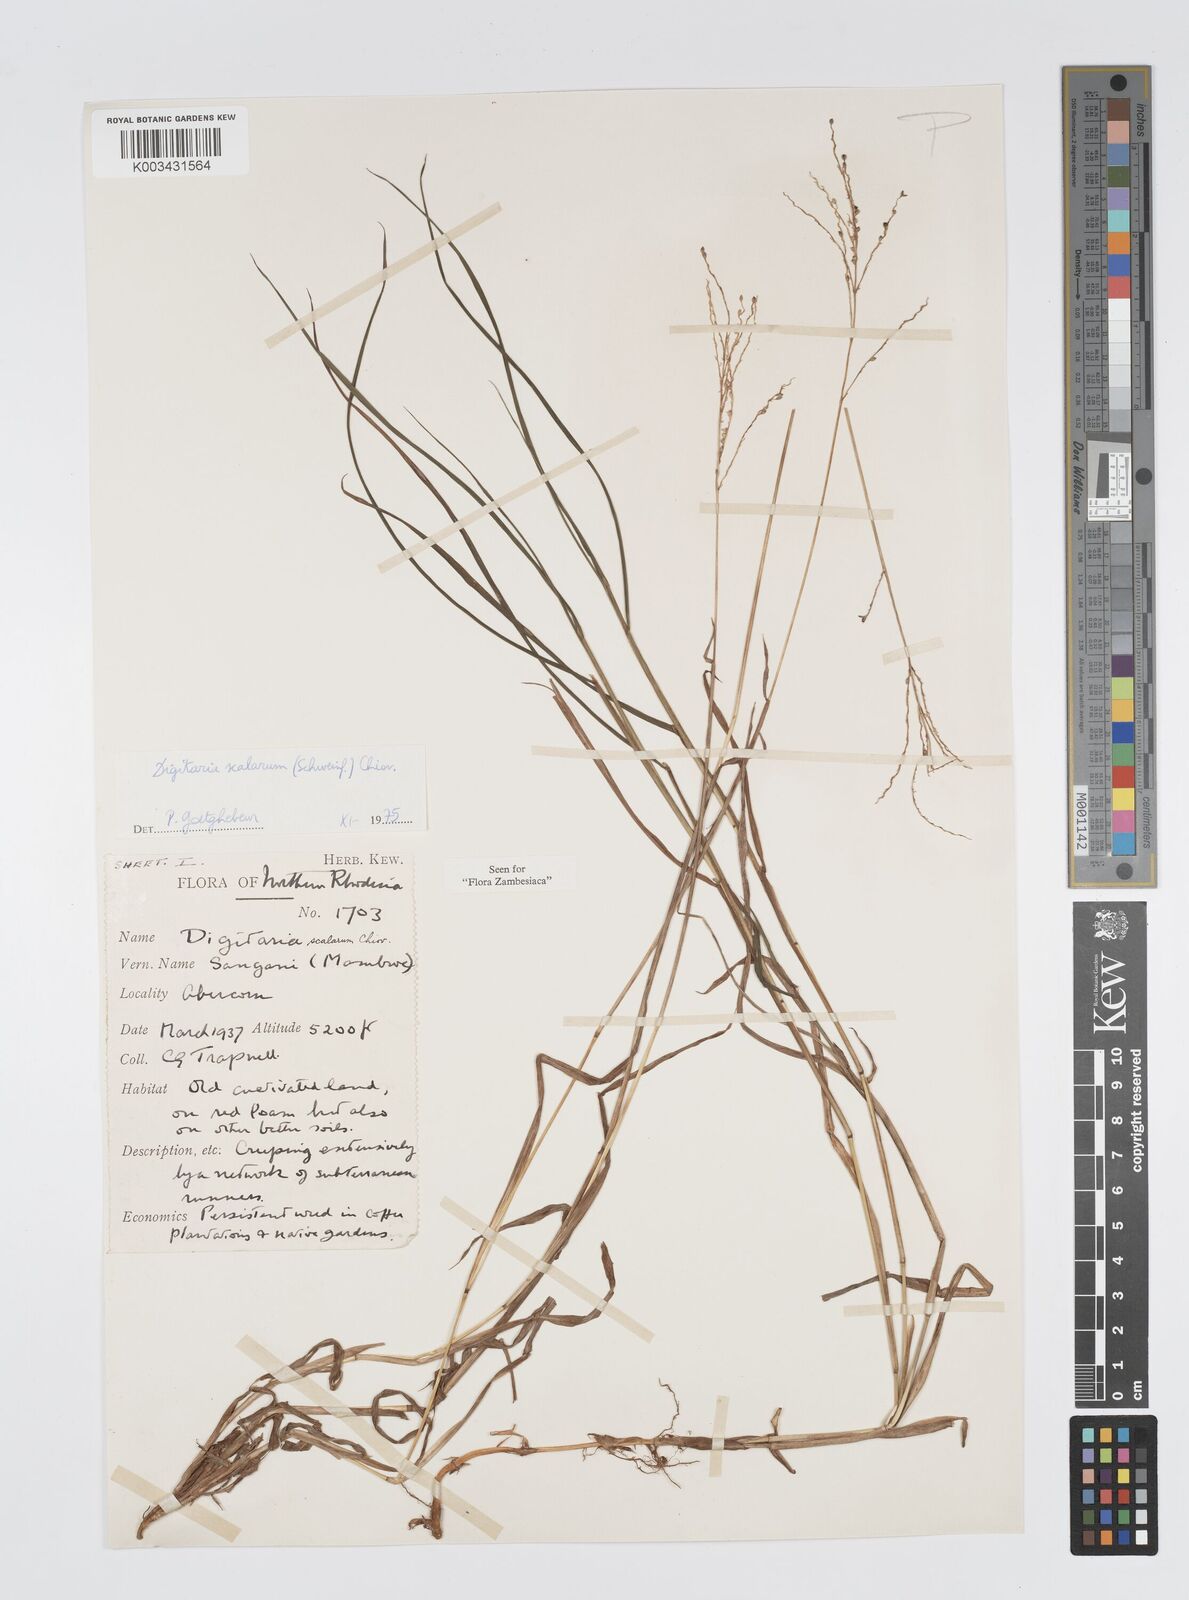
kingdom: Plantae
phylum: Tracheophyta
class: Liliopsida
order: Poales
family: Poaceae
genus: Digitaria
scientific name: Digitaria abyssinica
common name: African couchgrass
